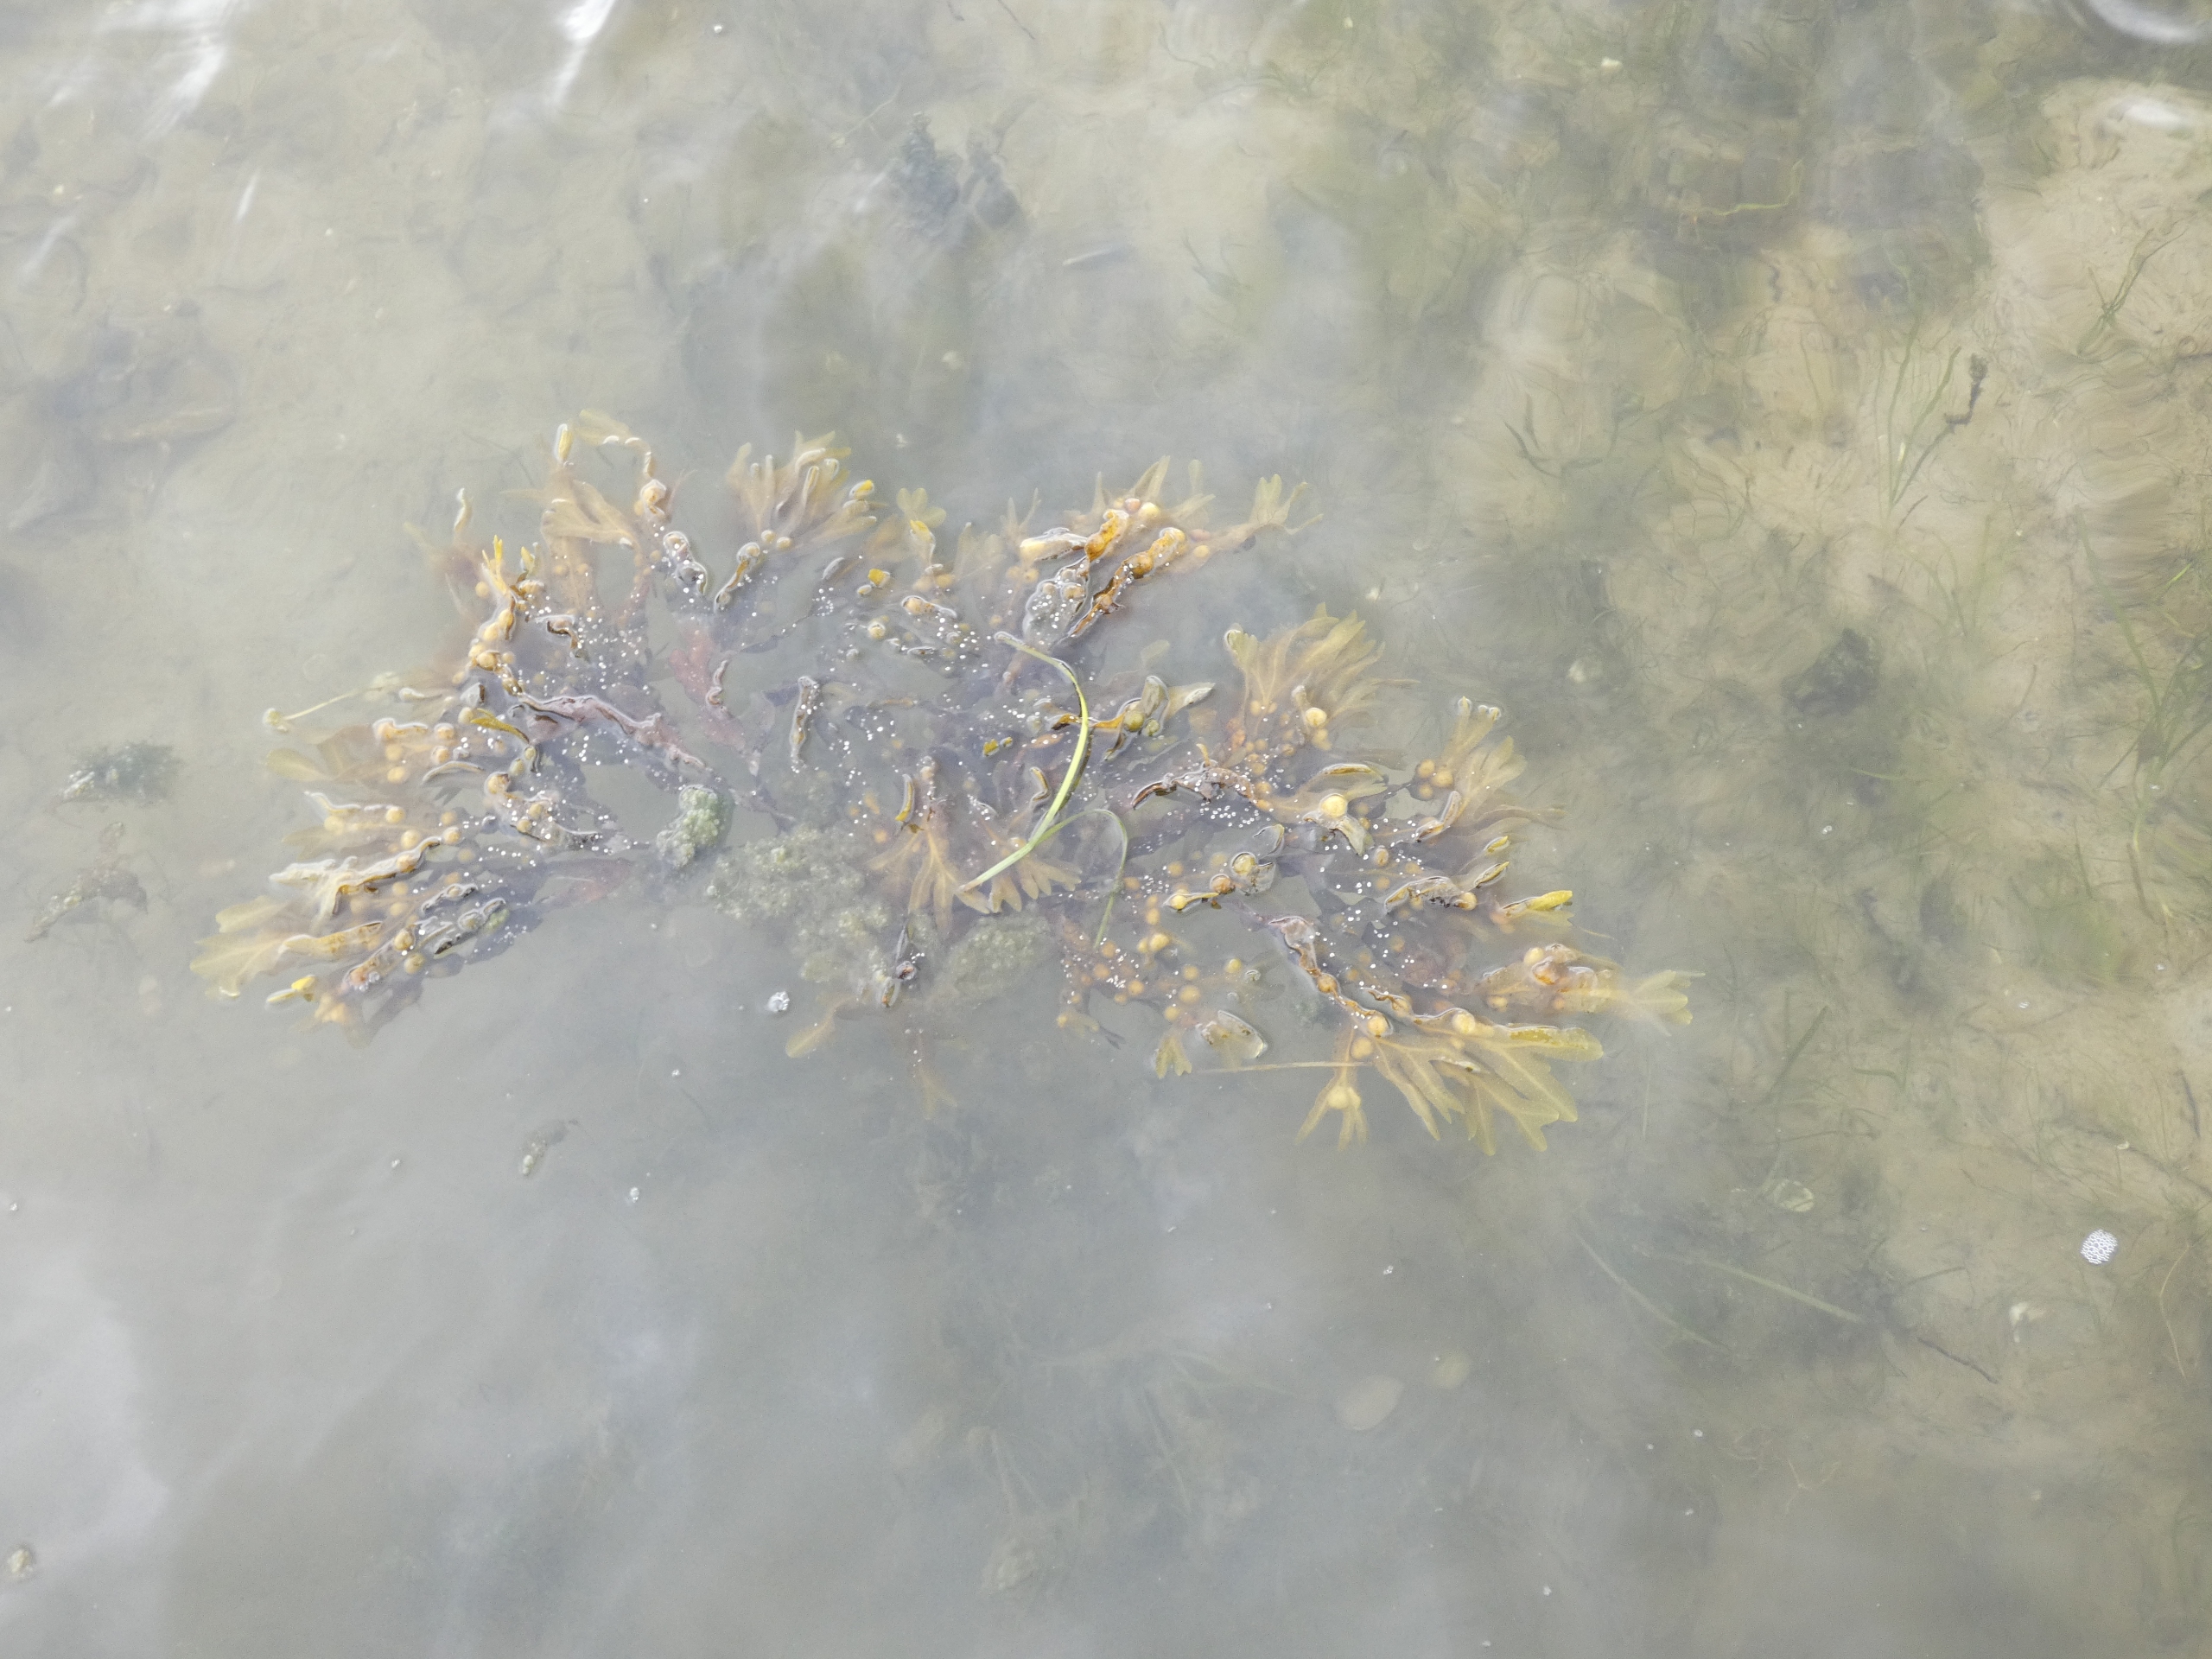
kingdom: Chromista
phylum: Ochrophyta
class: Phaeophyceae
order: Fucales
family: Fucaceae
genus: Fucus
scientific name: Fucus vesiculosus
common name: Blæretang
